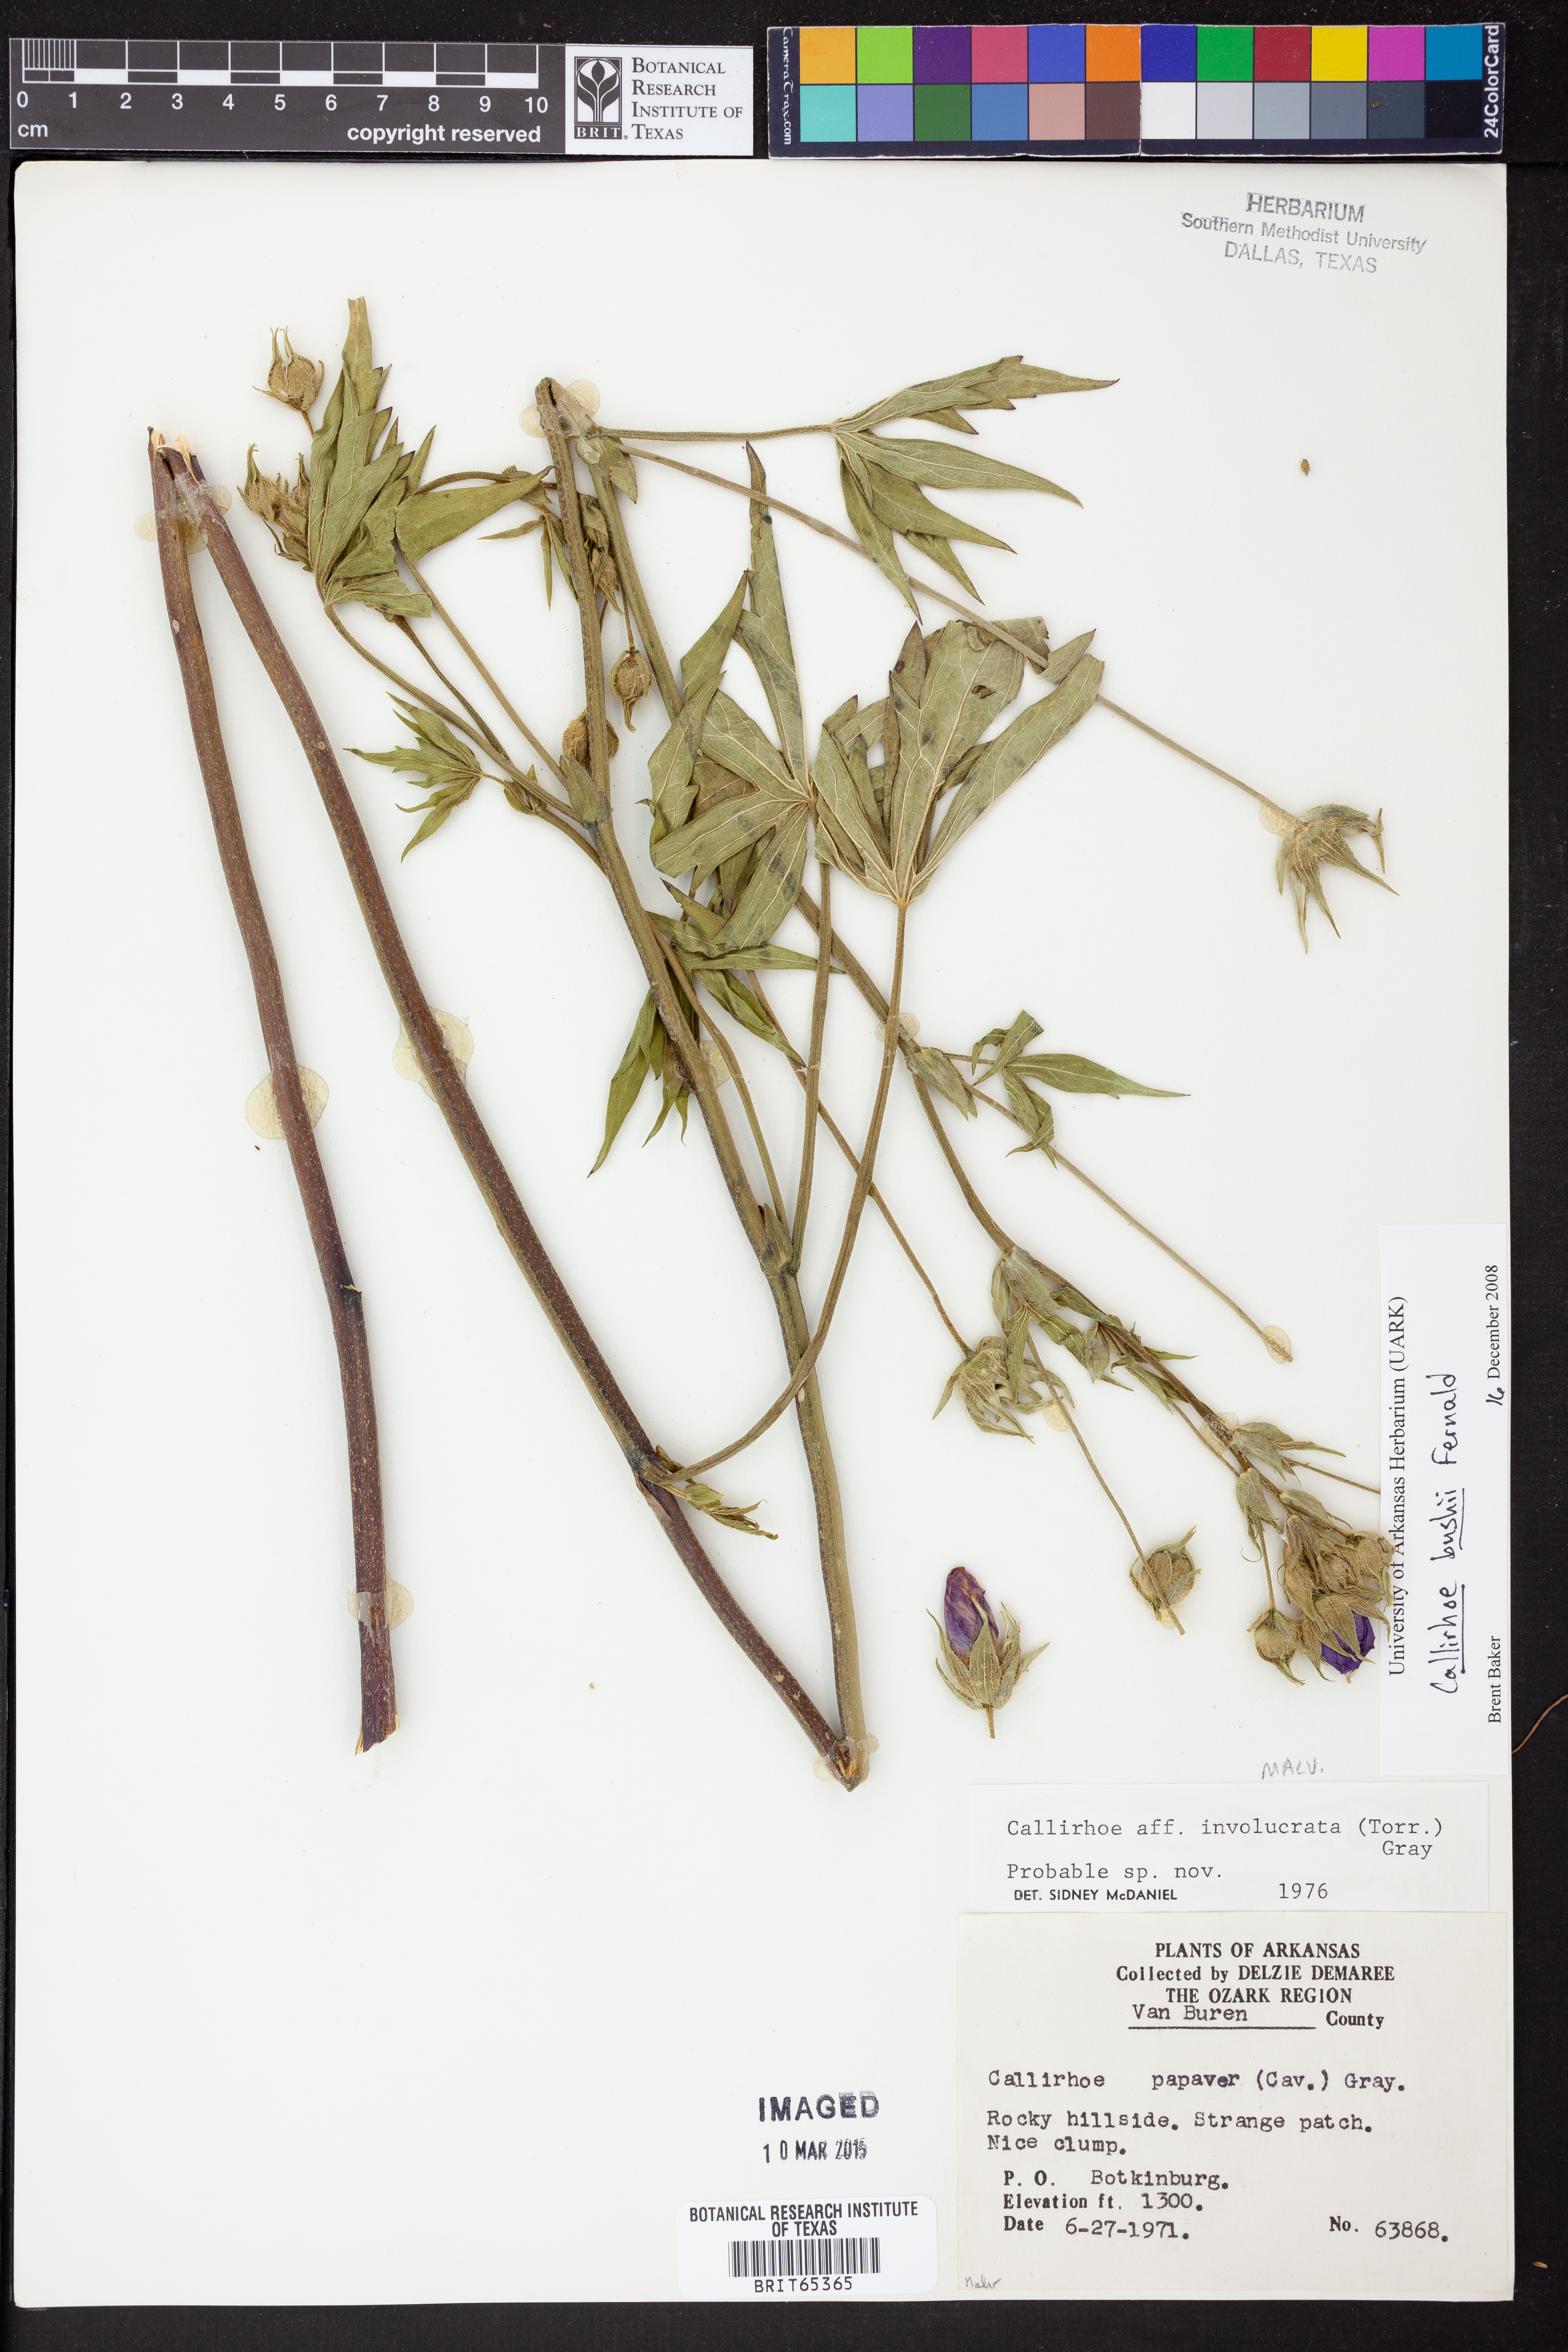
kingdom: Plantae
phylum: Tracheophyta
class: Magnoliopsida
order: Malvales
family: Malvaceae
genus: Callirhoe
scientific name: Callirhoe alcaeoides
